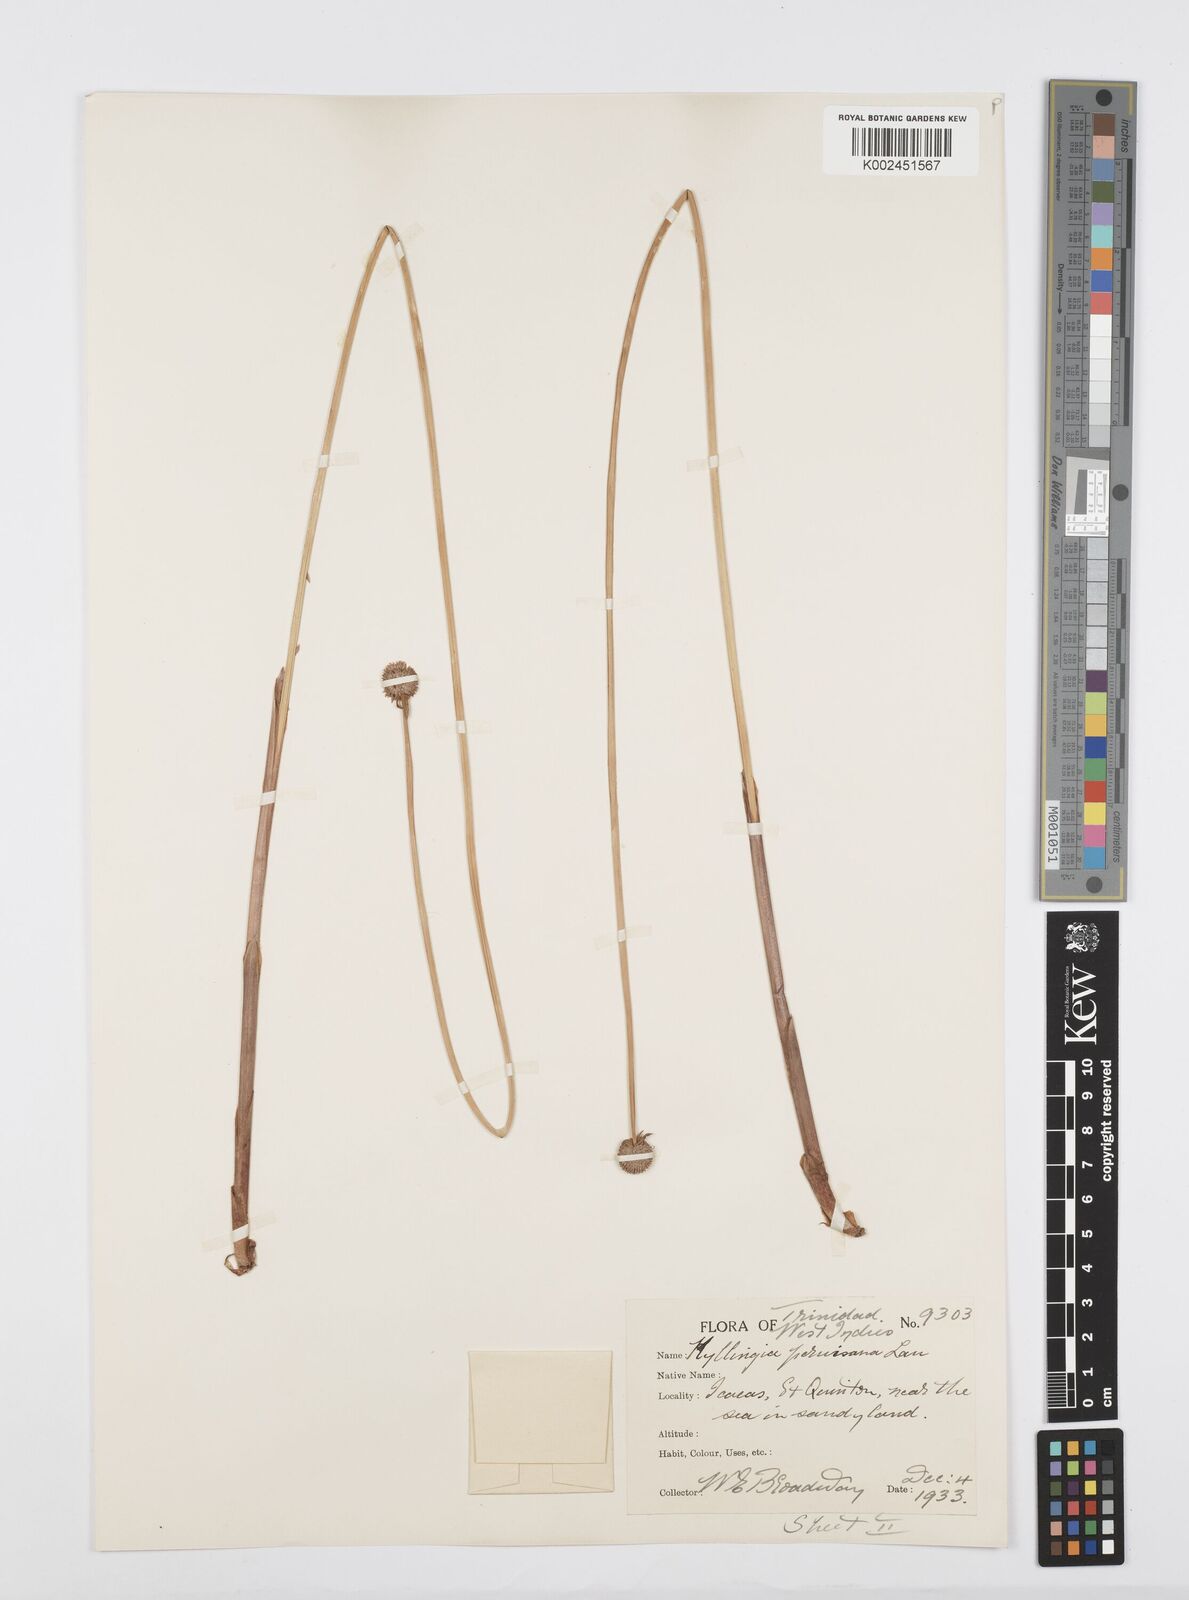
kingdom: Plantae
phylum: Tracheophyta
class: Liliopsida
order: Poales
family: Cyperaceae
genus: Cyperus
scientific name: Cyperus obtusatus
